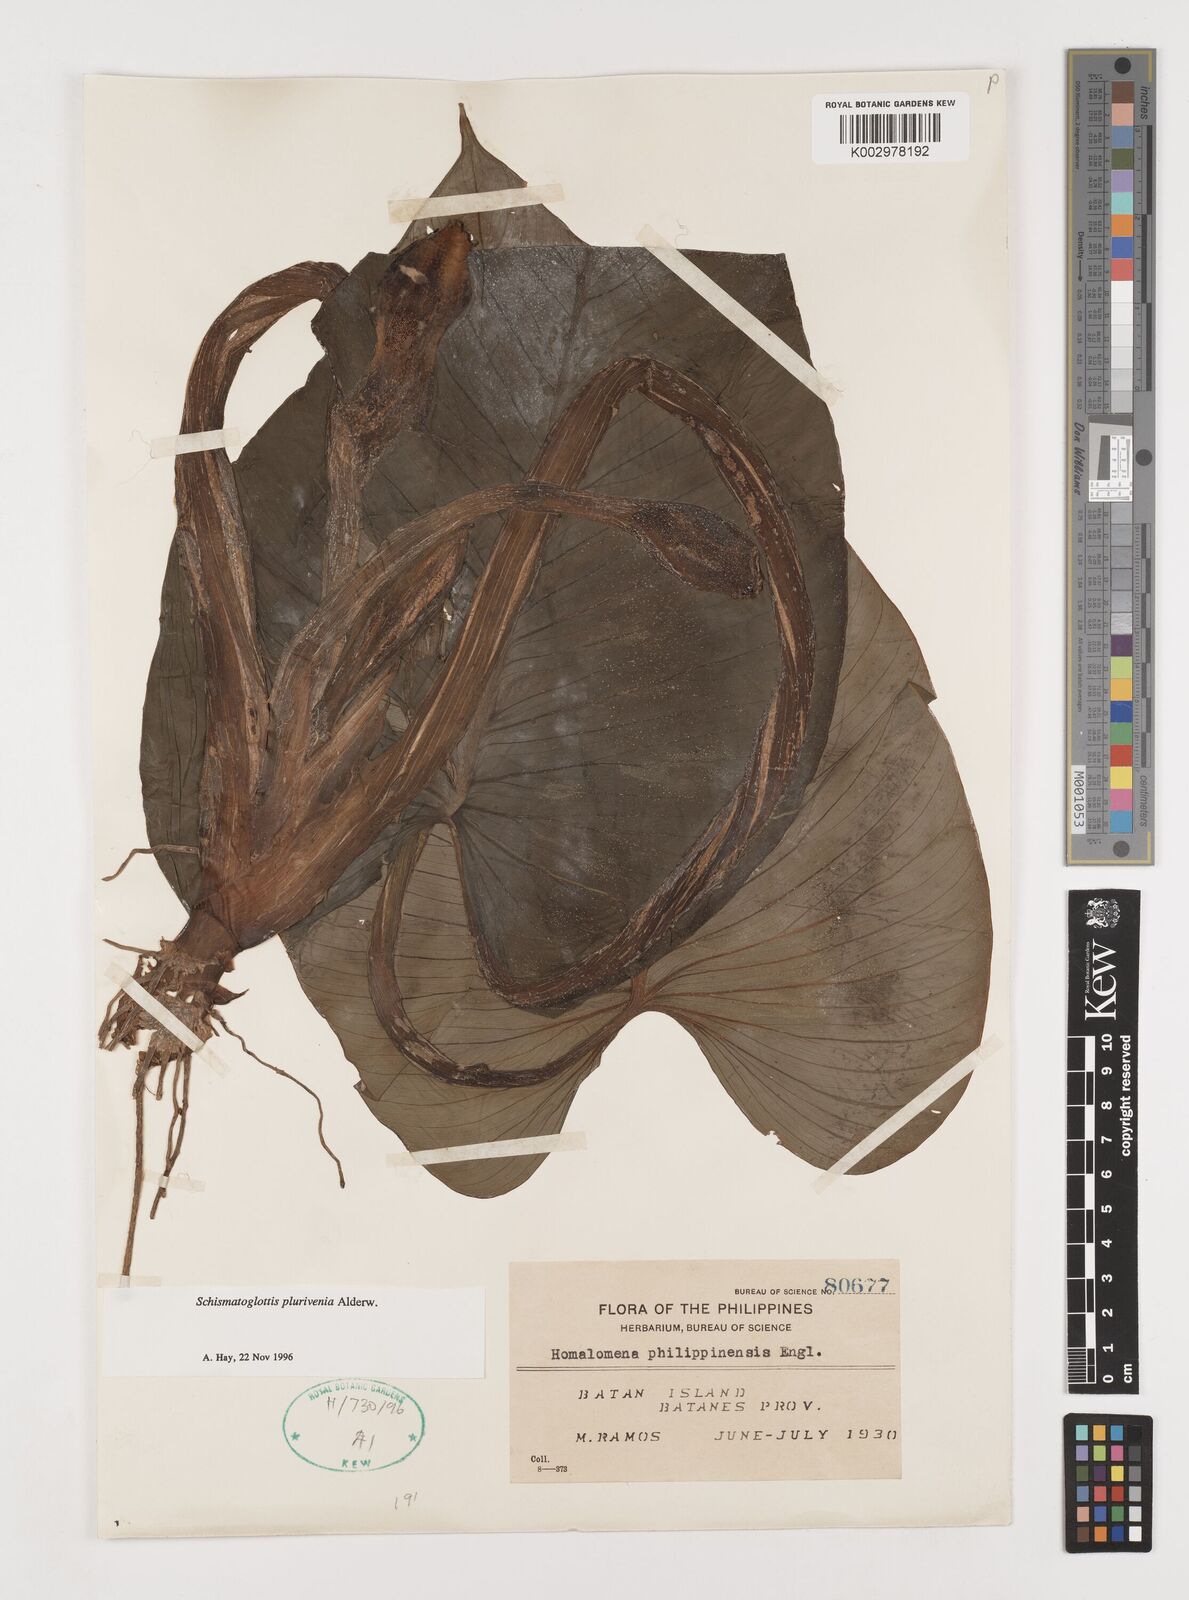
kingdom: Plantae
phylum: Tracheophyta
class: Liliopsida
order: Alismatales
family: Araceae
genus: Schismatoglottis
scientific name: Schismatoglottis plurivenia
